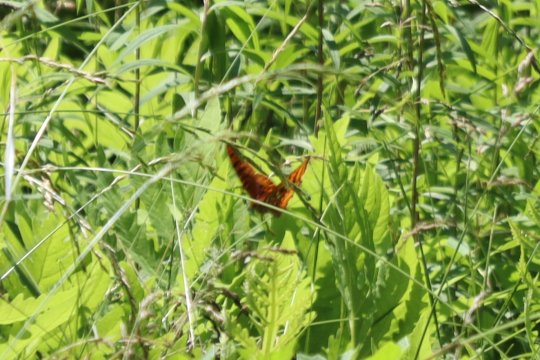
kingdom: Animalia
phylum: Arthropoda
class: Insecta
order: Lepidoptera
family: Nymphalidae
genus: Speyeria
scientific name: Speyeria cybele
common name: Great Spangled Fritillary
